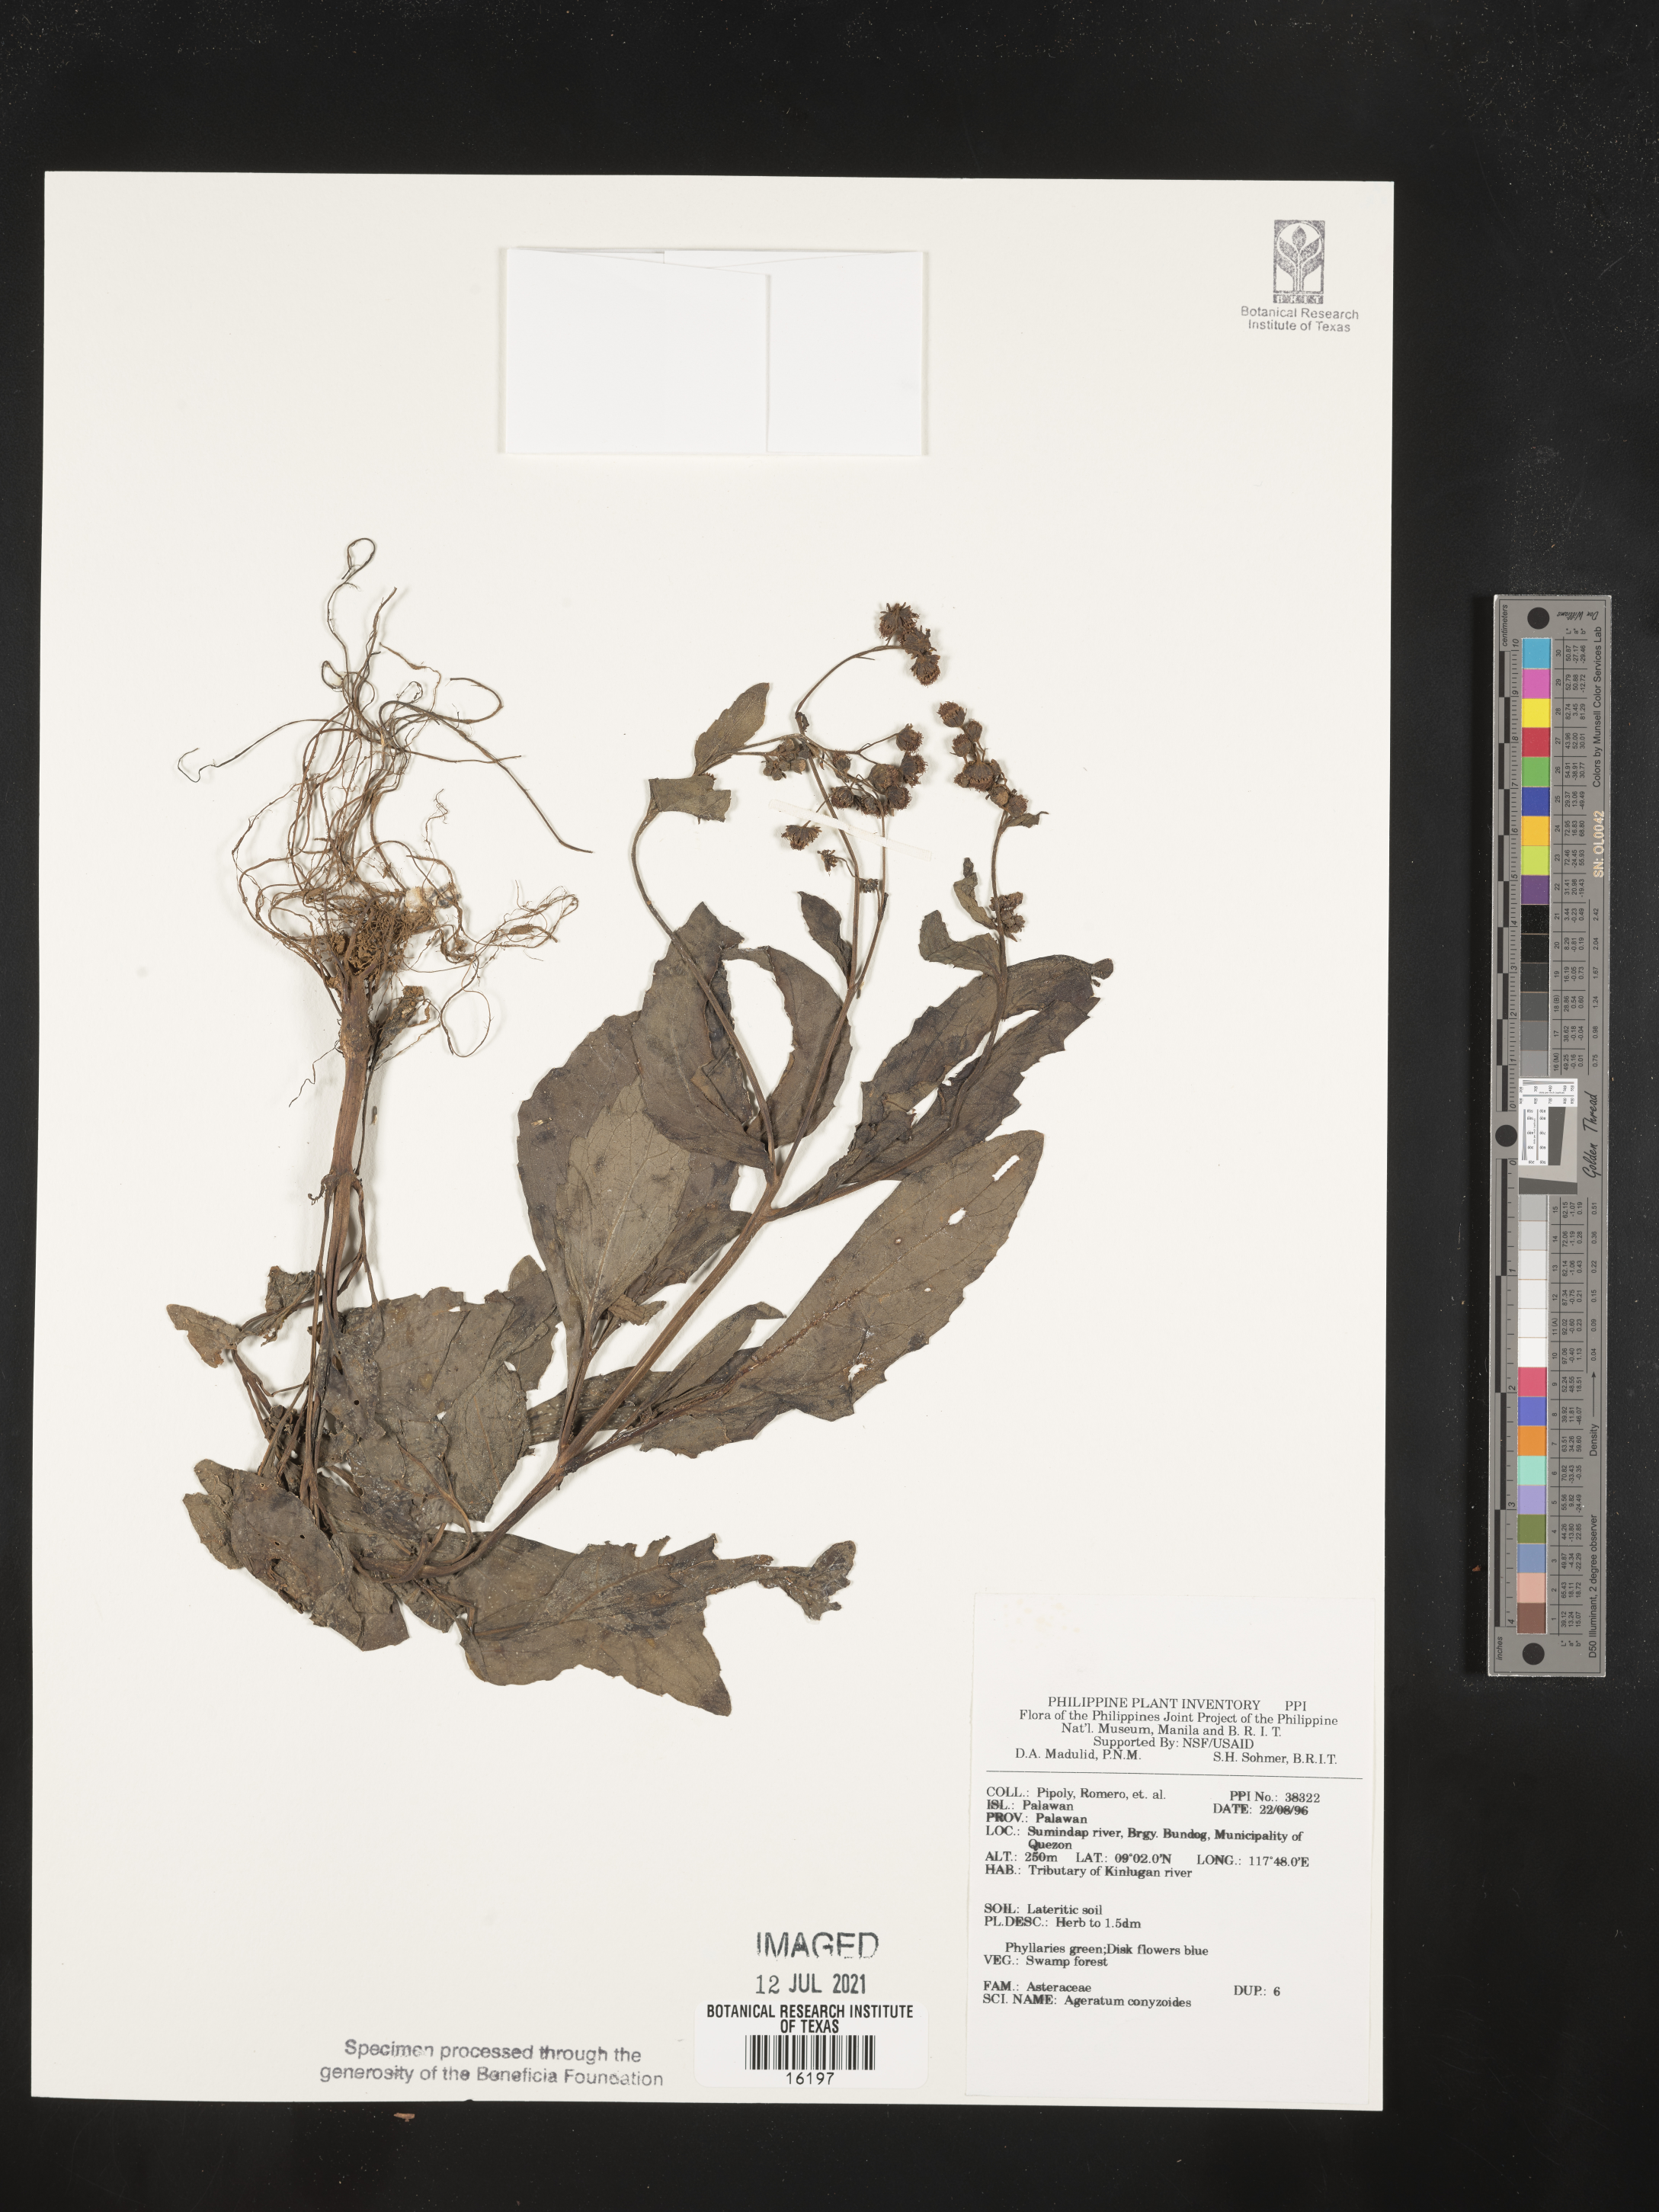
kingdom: Plantae
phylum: Tracheophyta
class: Magnoliopsida
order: Asterales
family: Asteraceae
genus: Chromolaena
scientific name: Chromolaena corymbosa
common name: Caribbean thoroughwort
